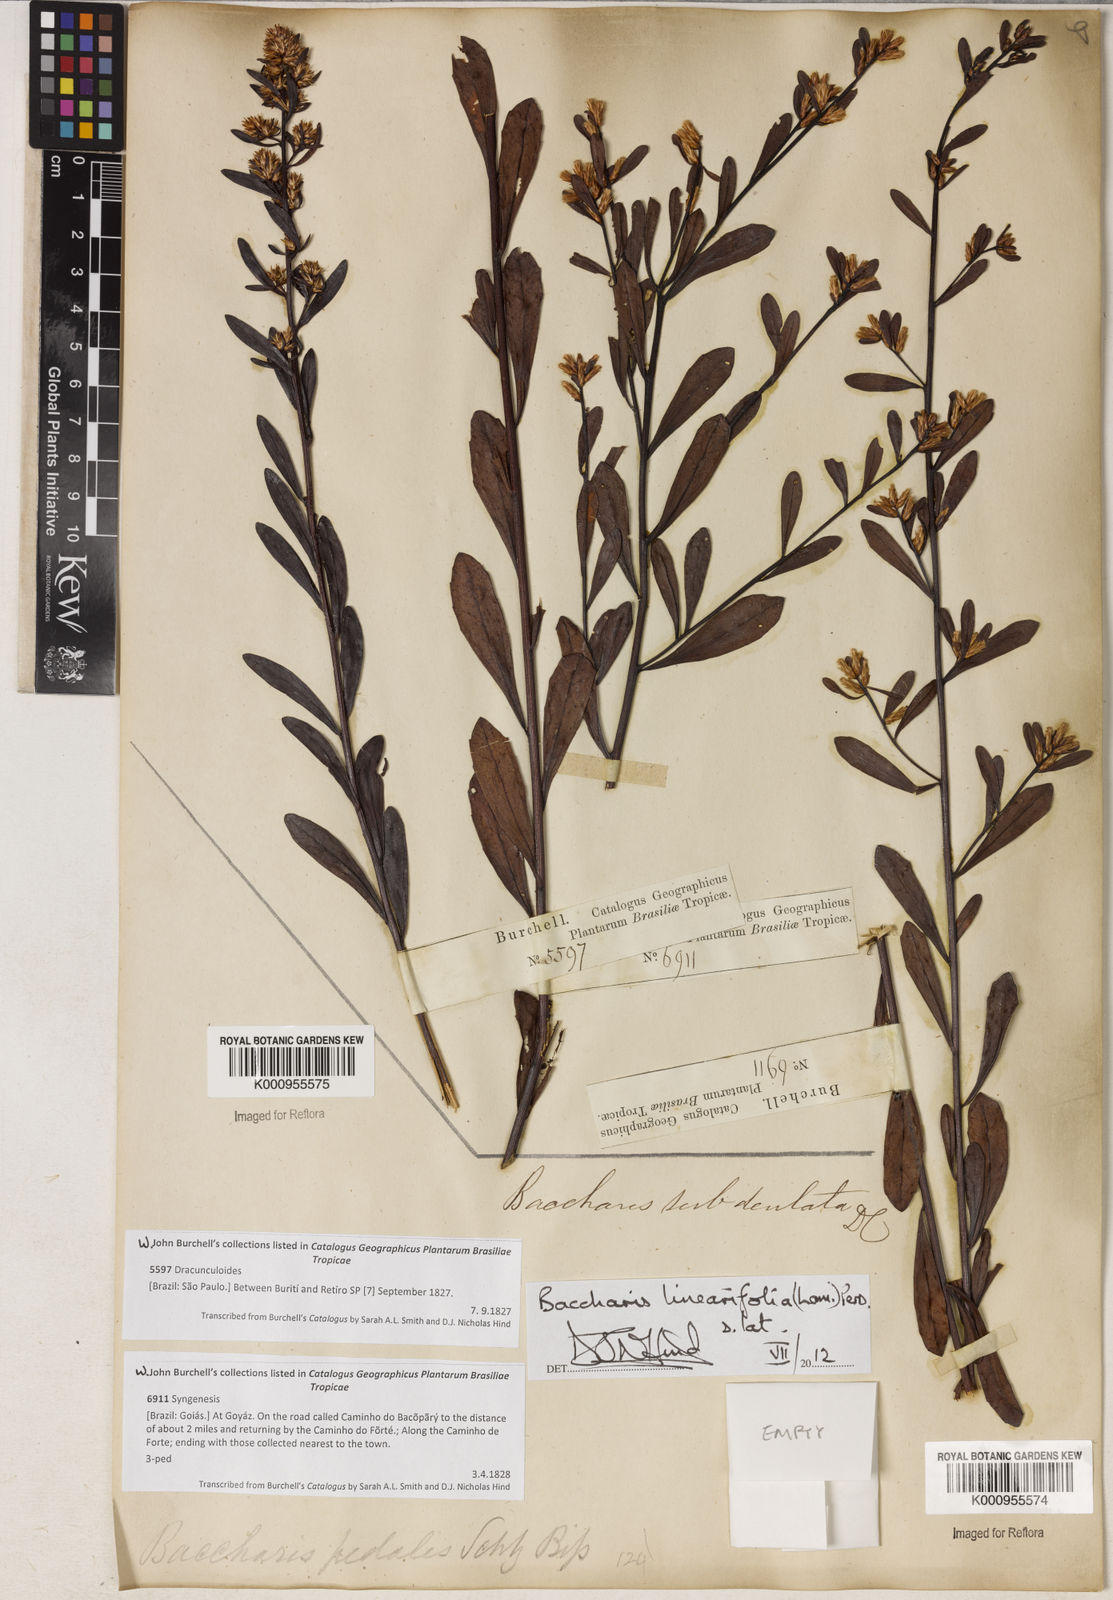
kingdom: Plantae
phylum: Tracheophyta
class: Magnoliopsida
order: Asterales
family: Asteraceae
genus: Baccharis
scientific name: Baccharis linearifolia
